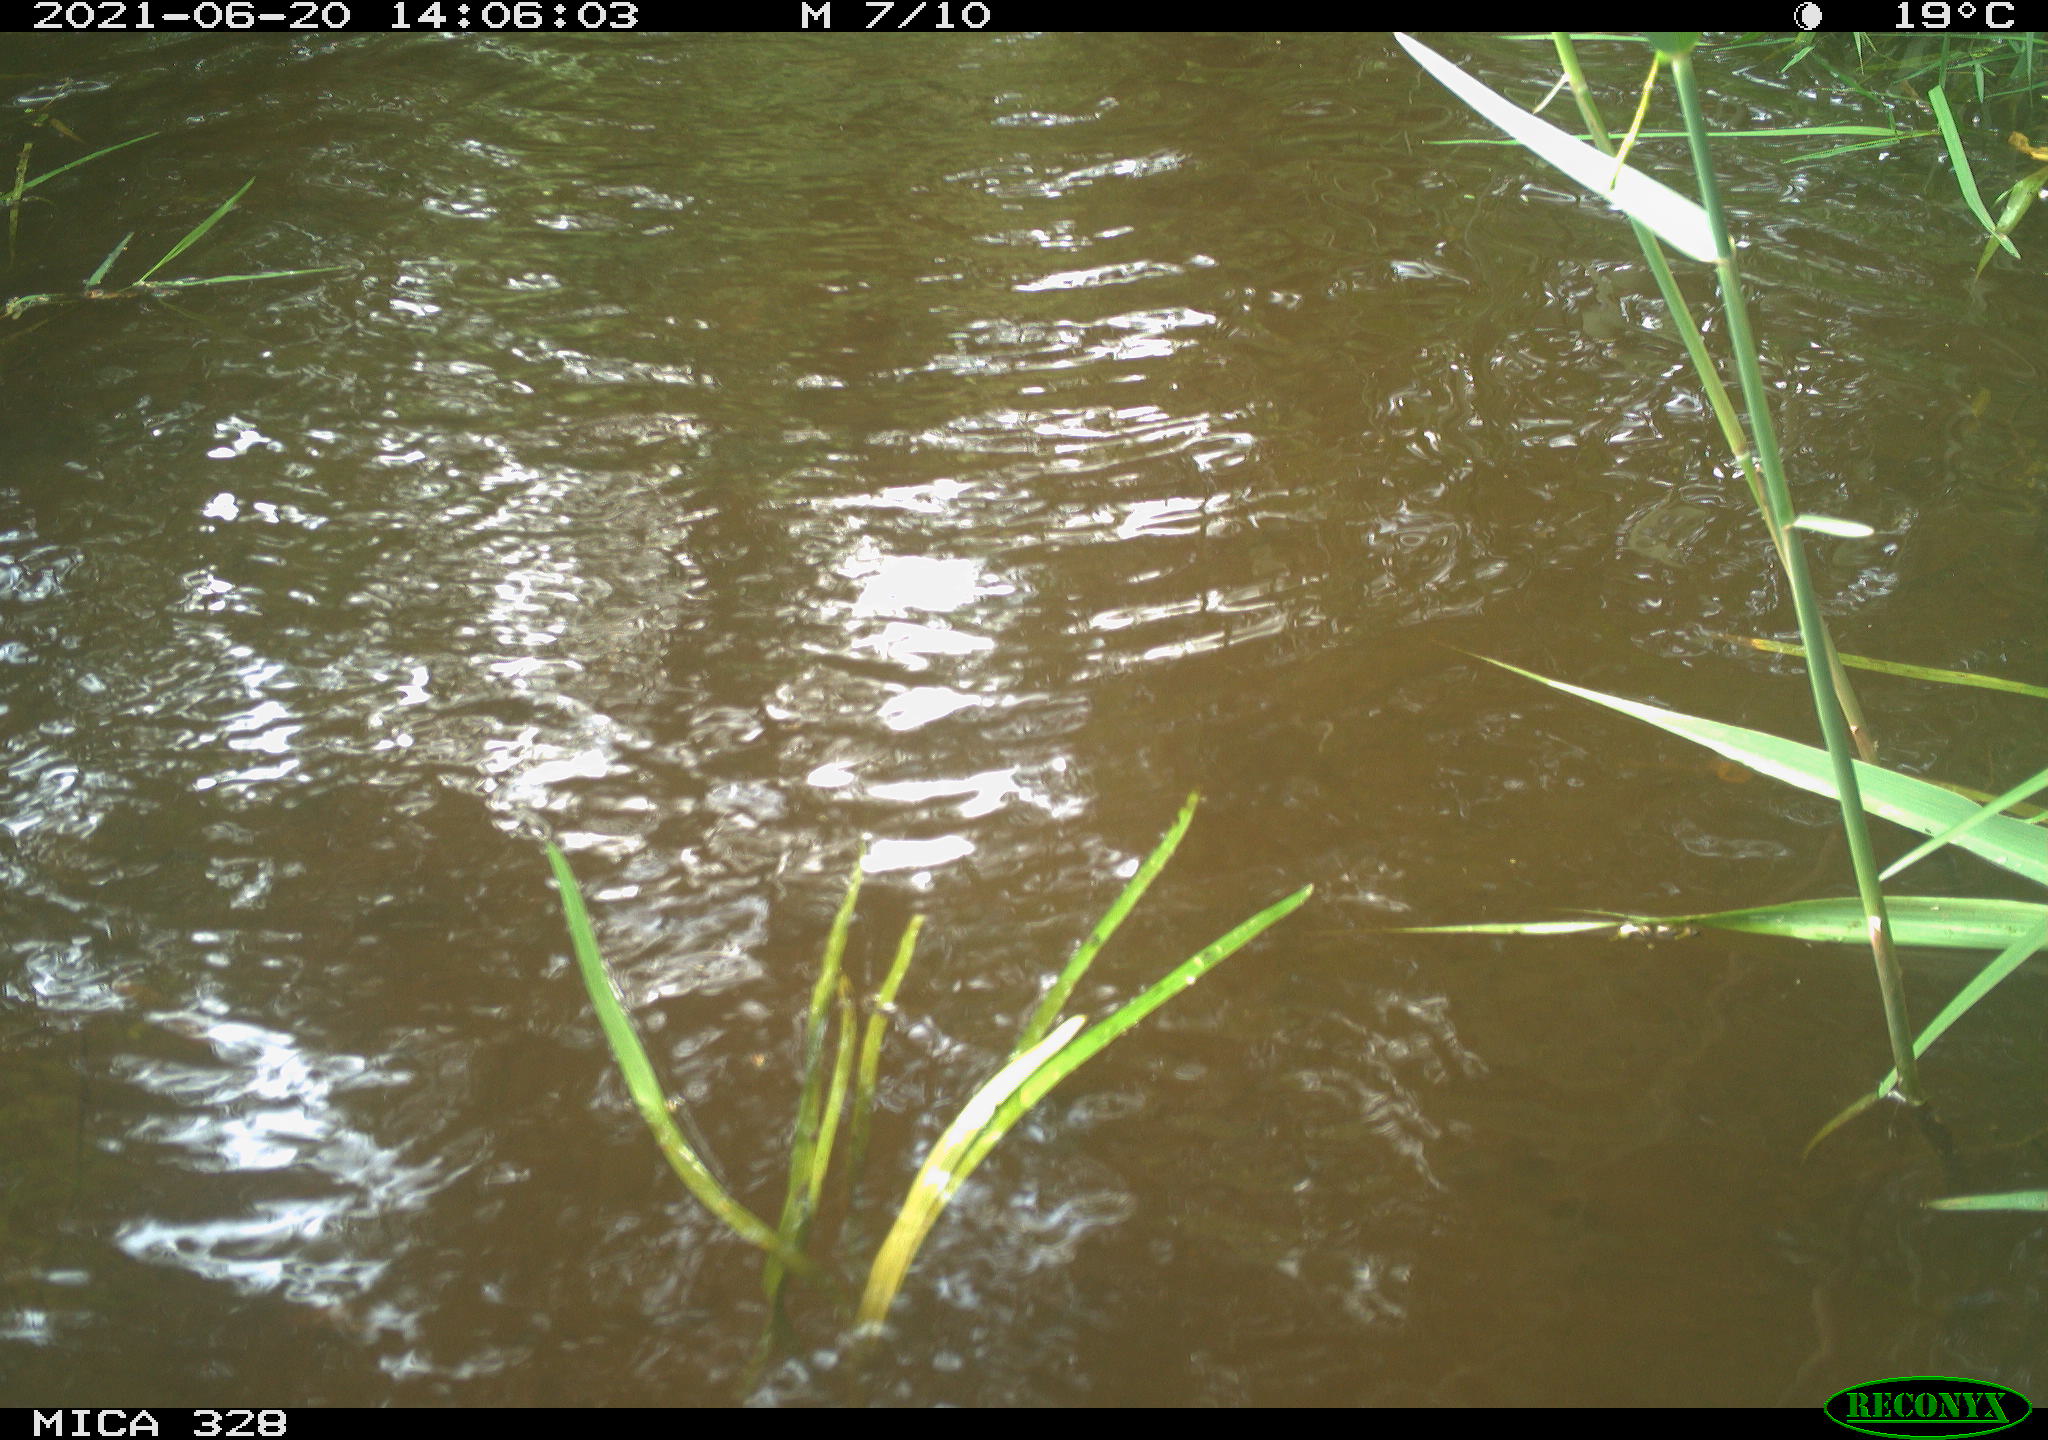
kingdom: Animalia
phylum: Chordata
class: Mammalia
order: Rodentia
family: Cricetidae
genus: Ondatra
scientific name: Ondatra zibethicus
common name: Muskrat
